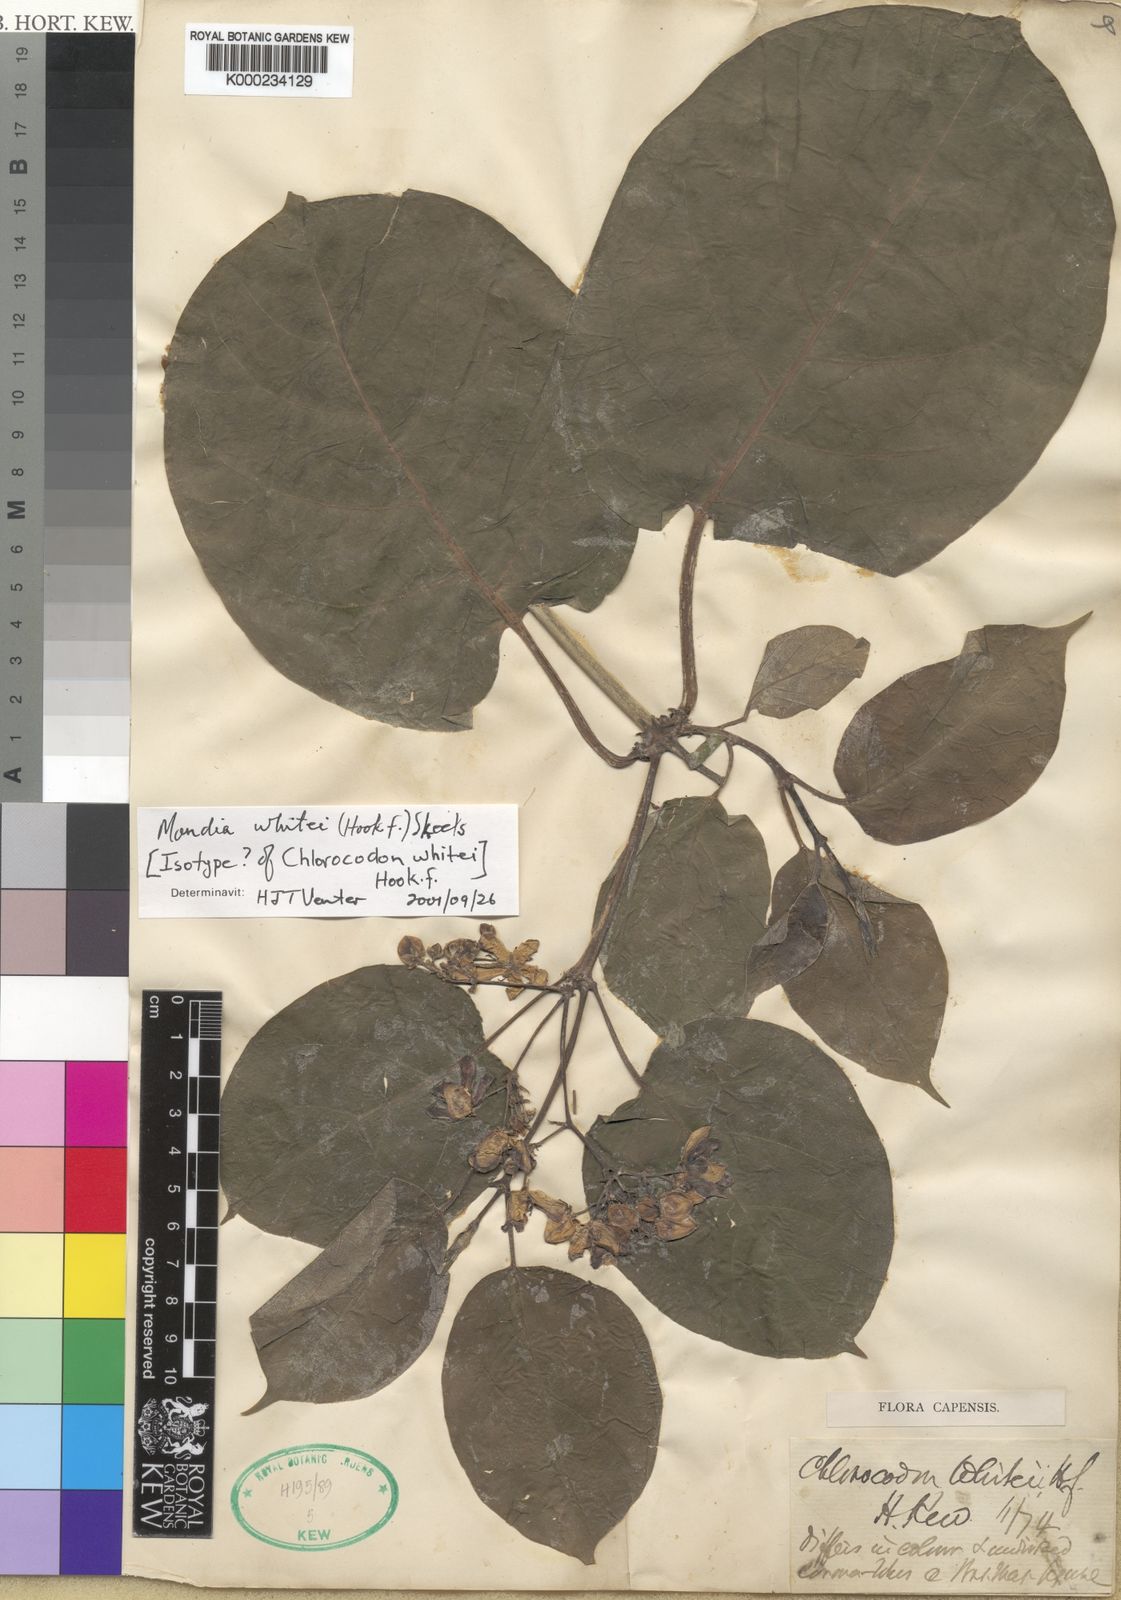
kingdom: Plantae
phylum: Tracheophyta
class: Magnoliopsida
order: Gentianales
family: Apocynaceae
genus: Mondia
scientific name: Mondia whitei
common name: Mondia
